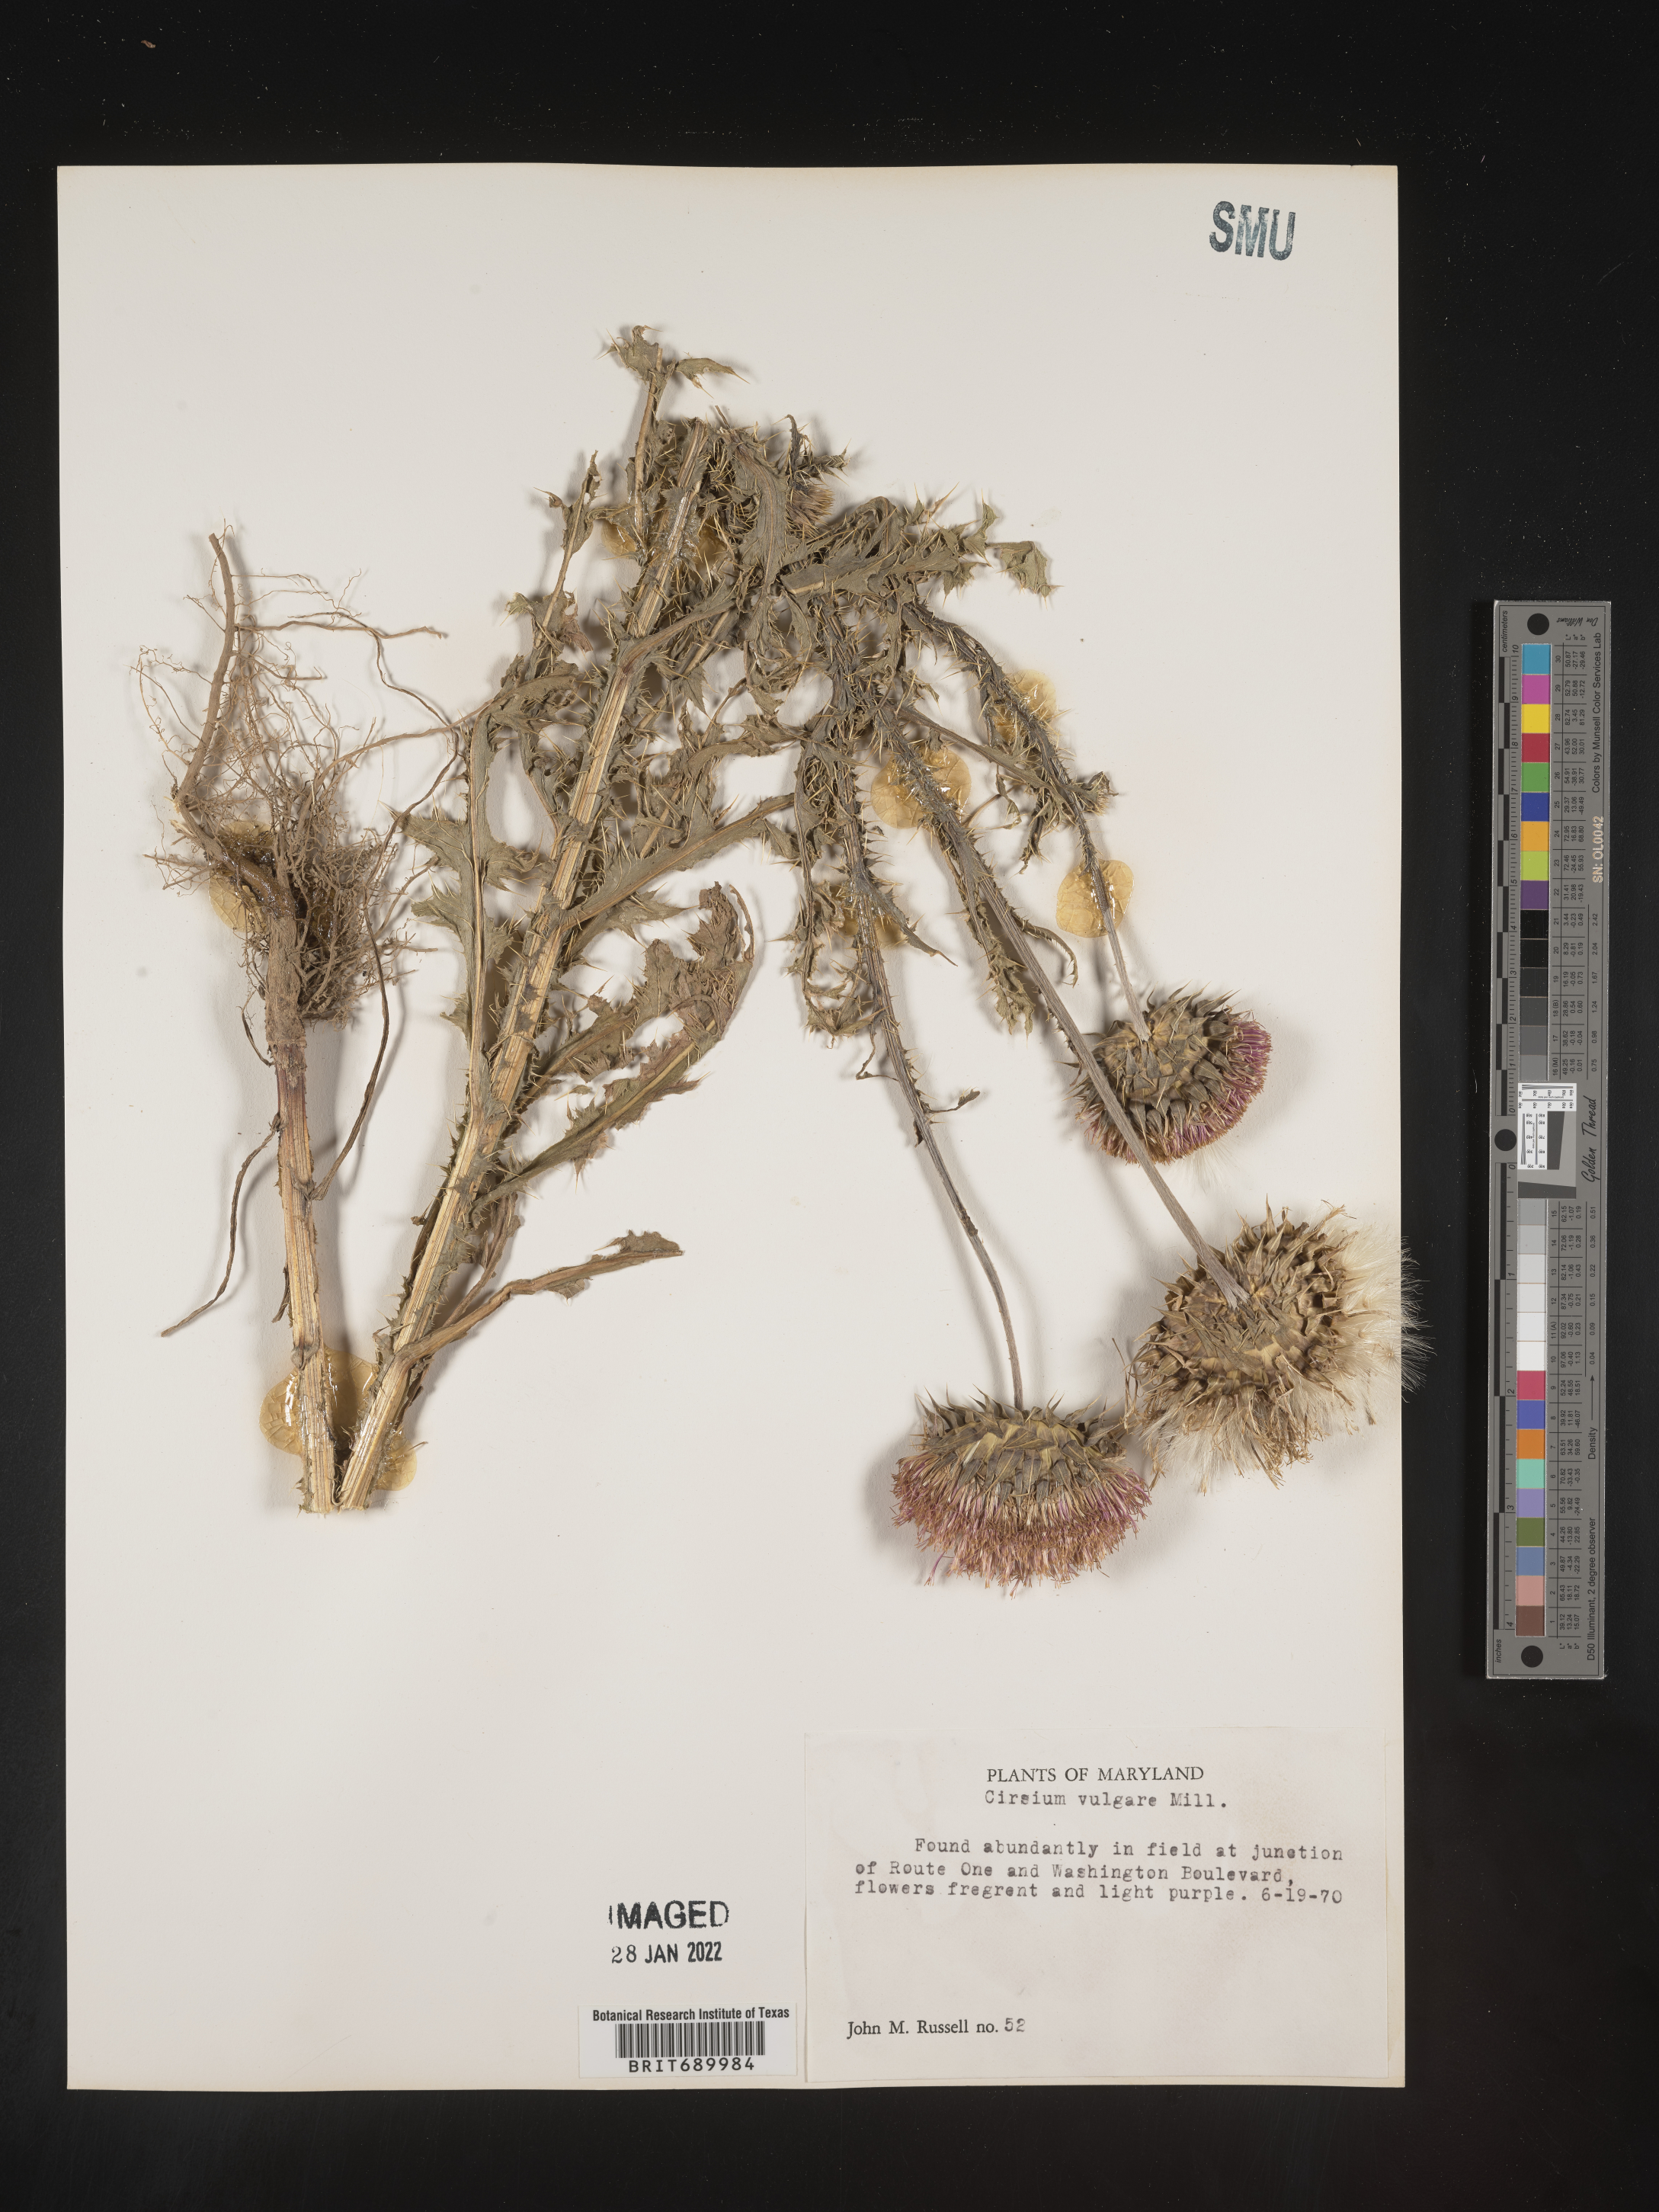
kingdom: Plantae
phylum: Tracheophyta
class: Magnoliopsida
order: Asterales
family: Asteraceae
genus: Cirsium
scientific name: Cirsium vulgare
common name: Bull thistle
